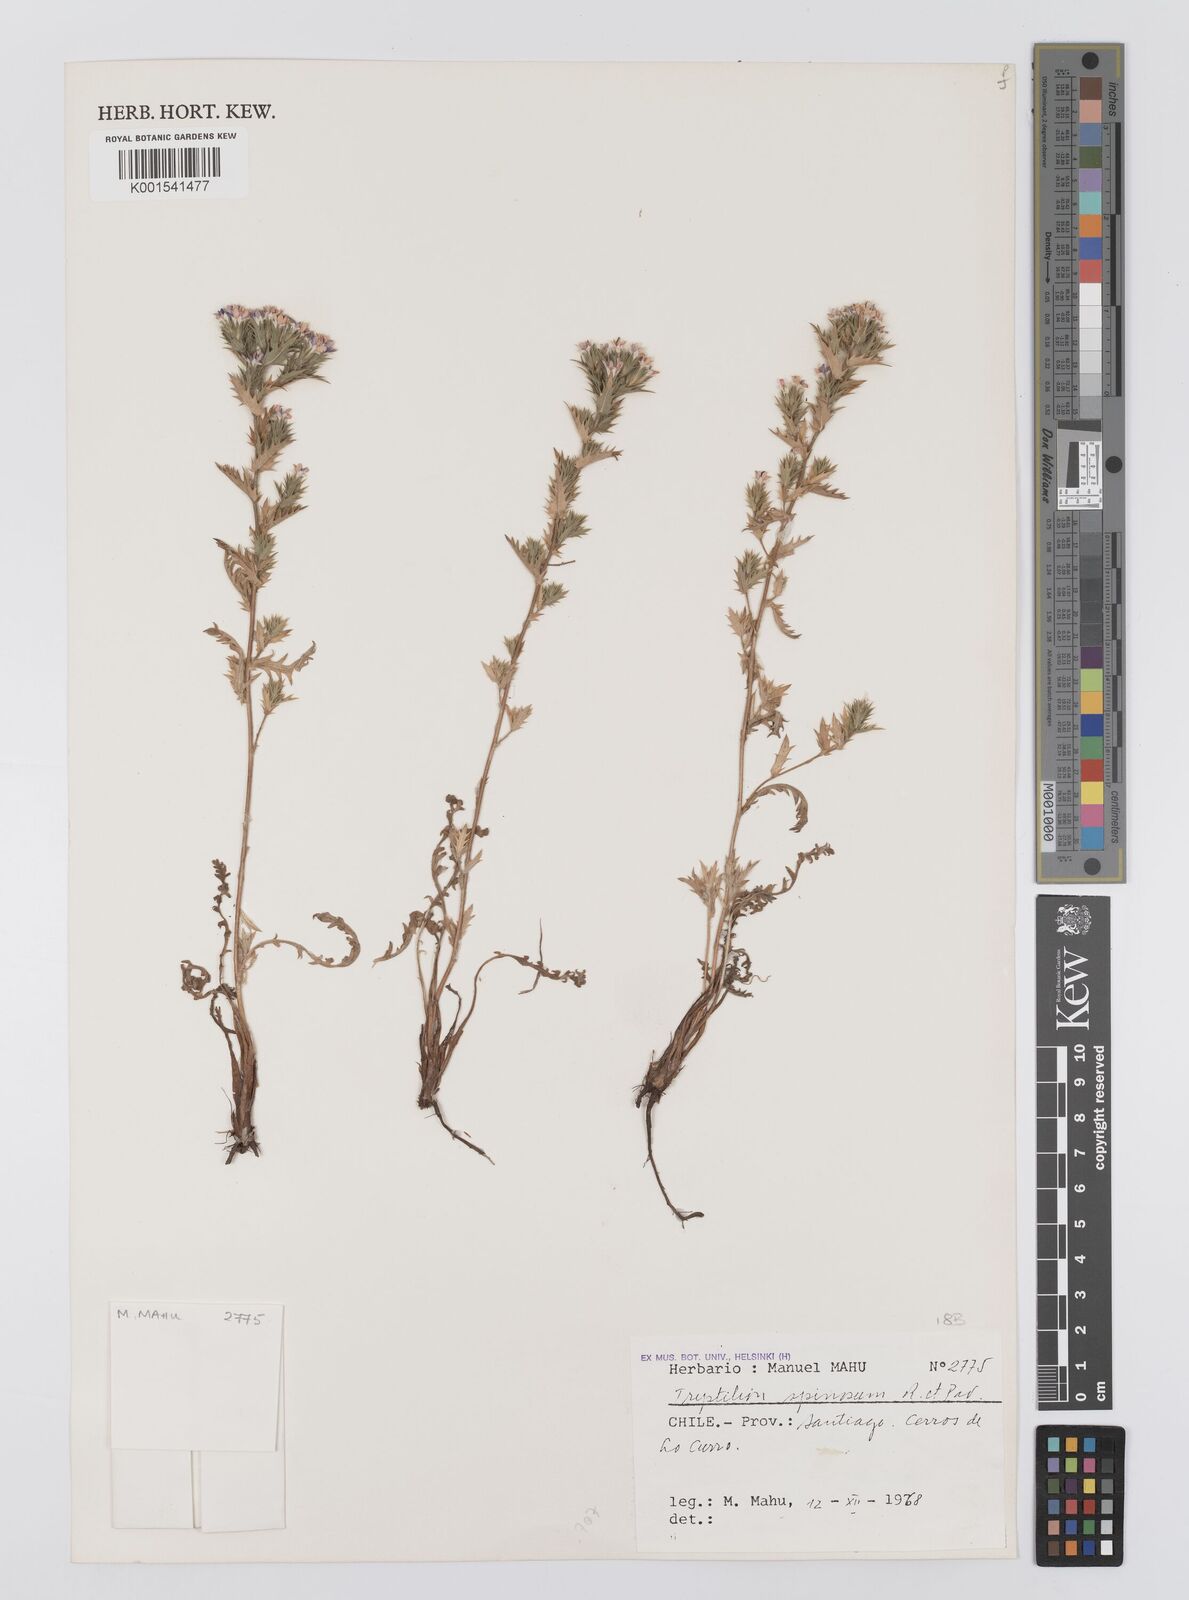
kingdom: Plantae
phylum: Tracheophyta
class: Magnoliopsida
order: Asterales
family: Asteraceae
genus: Triptilion
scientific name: Triptilion spinosum
